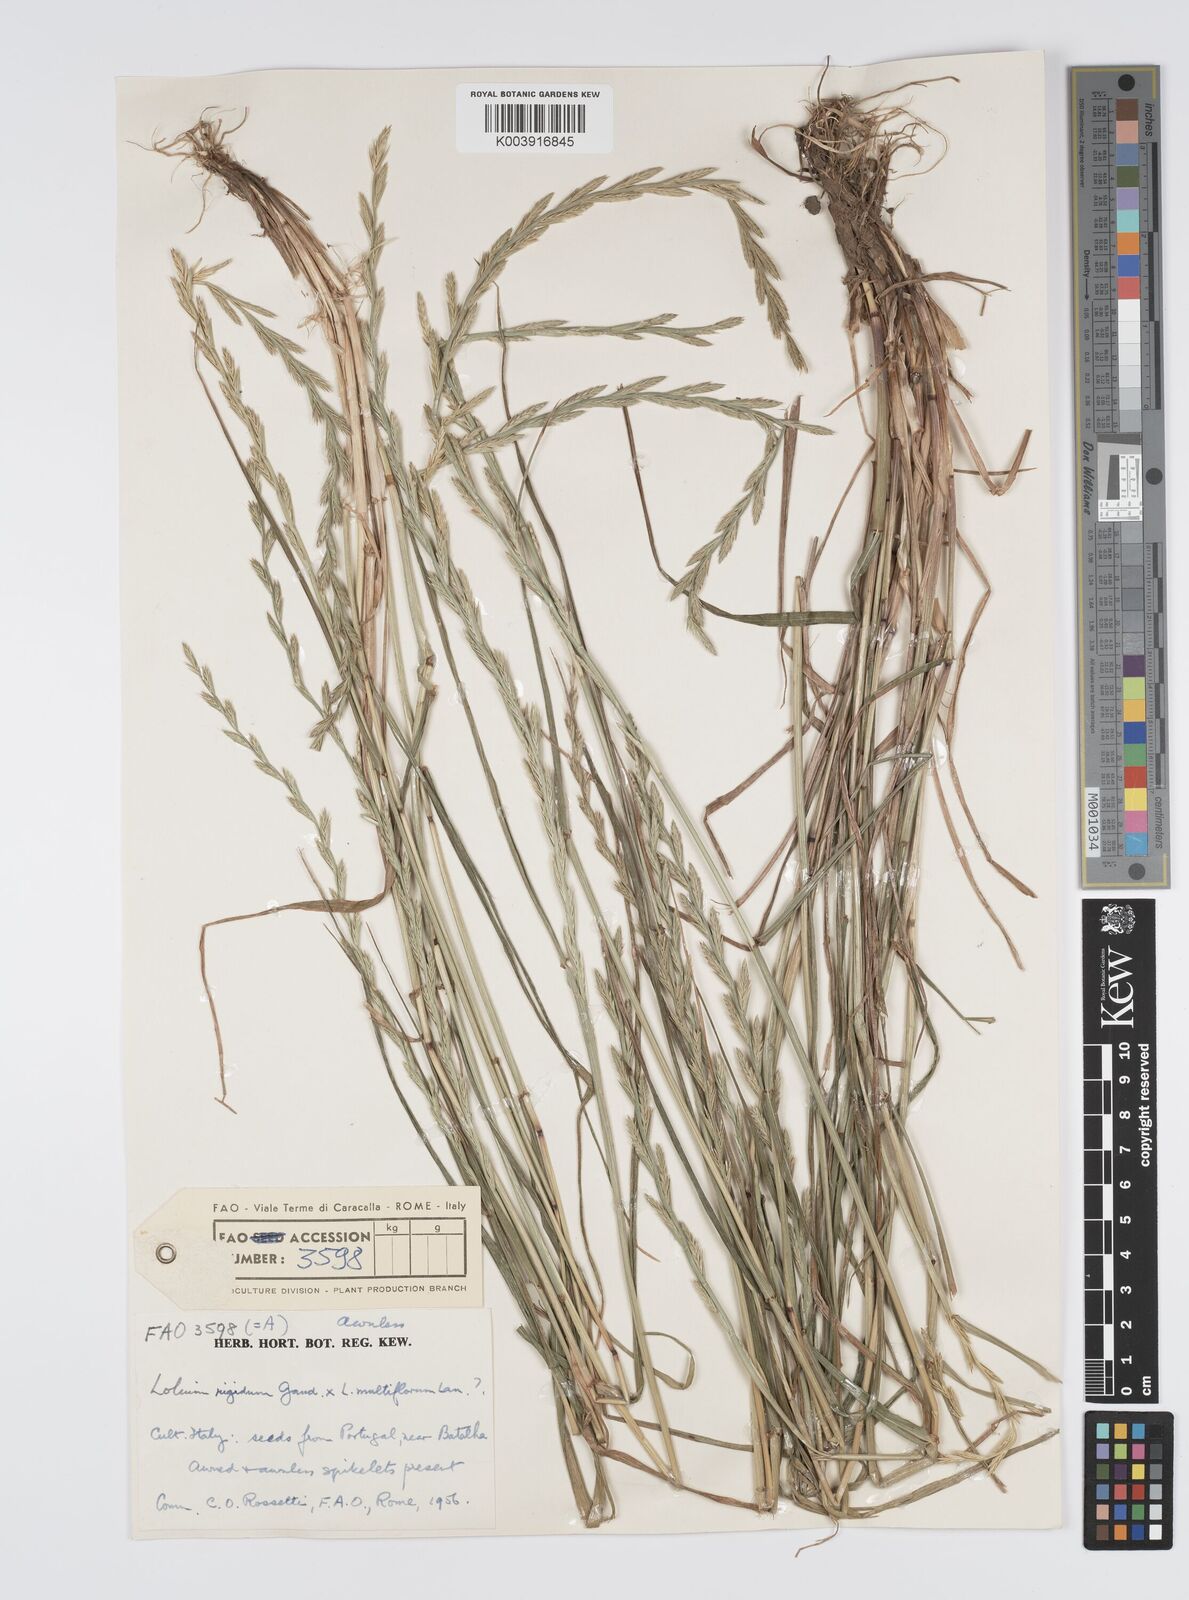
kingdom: Plantae
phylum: Tracheophyta
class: Liliopsida
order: Poales
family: Poaceae
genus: Lolium
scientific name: Lolium multiflorum
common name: Annual ryegrass
